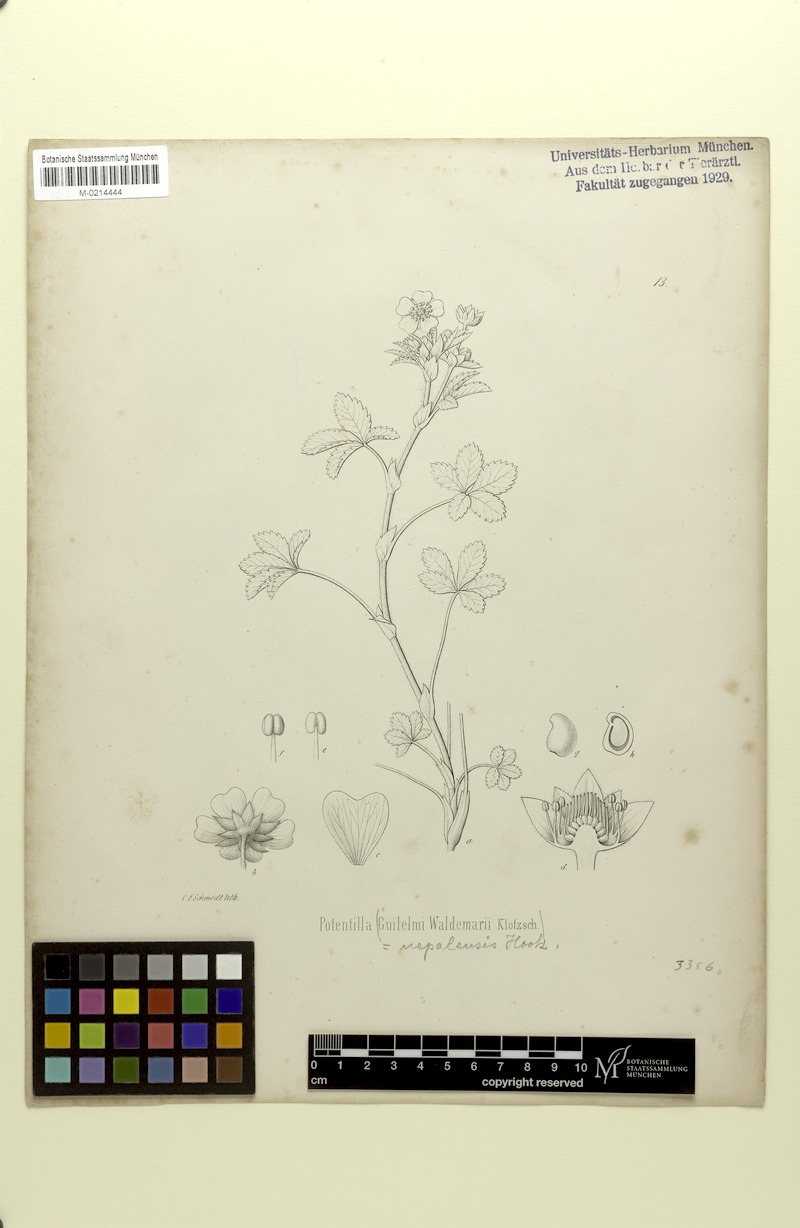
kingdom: Plantae
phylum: Tracheophyta
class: Magnoliopsida
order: Rosales
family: Rosaceae
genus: Potentilla
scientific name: Potentilla nepalensis
